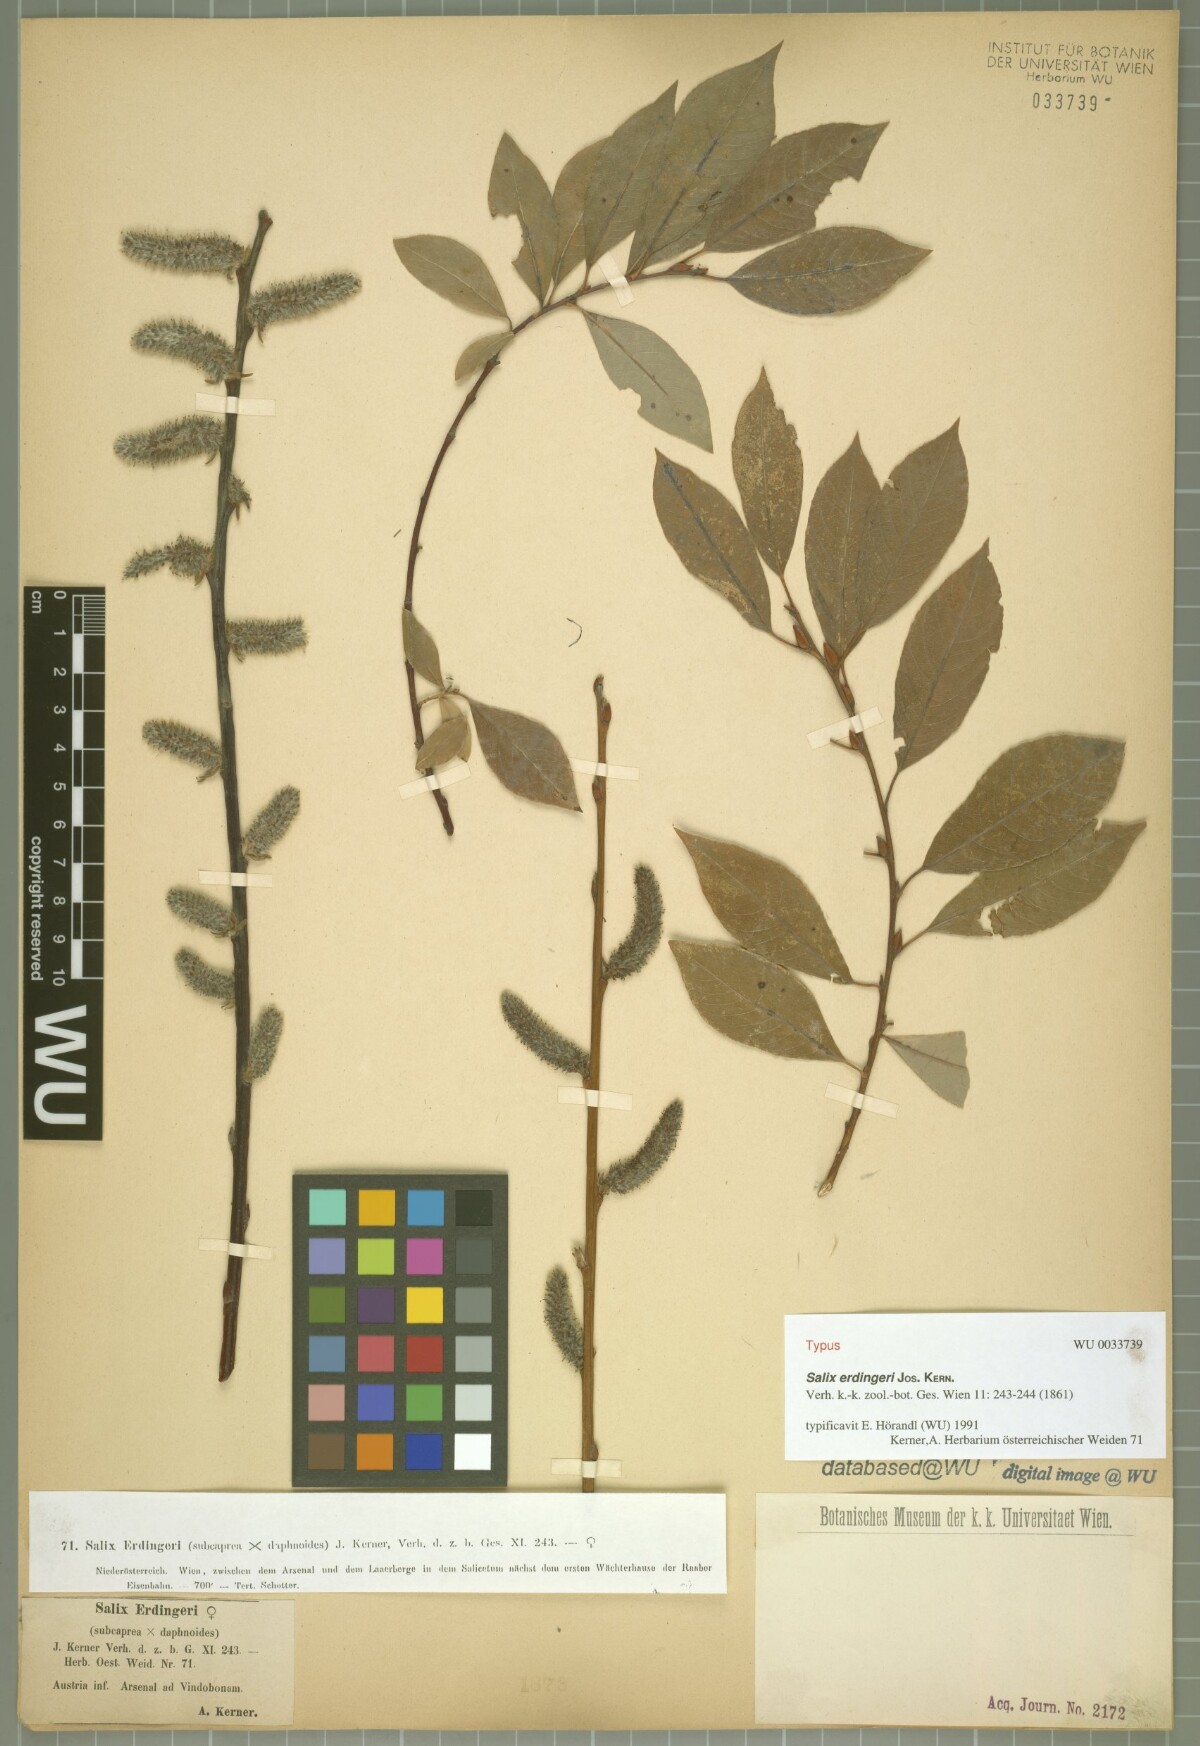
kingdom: Plantae
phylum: Tracheophyta
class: Magnoliopsida
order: Malpighiales
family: Salicaceae
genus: Salix
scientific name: Salix erdingeri
